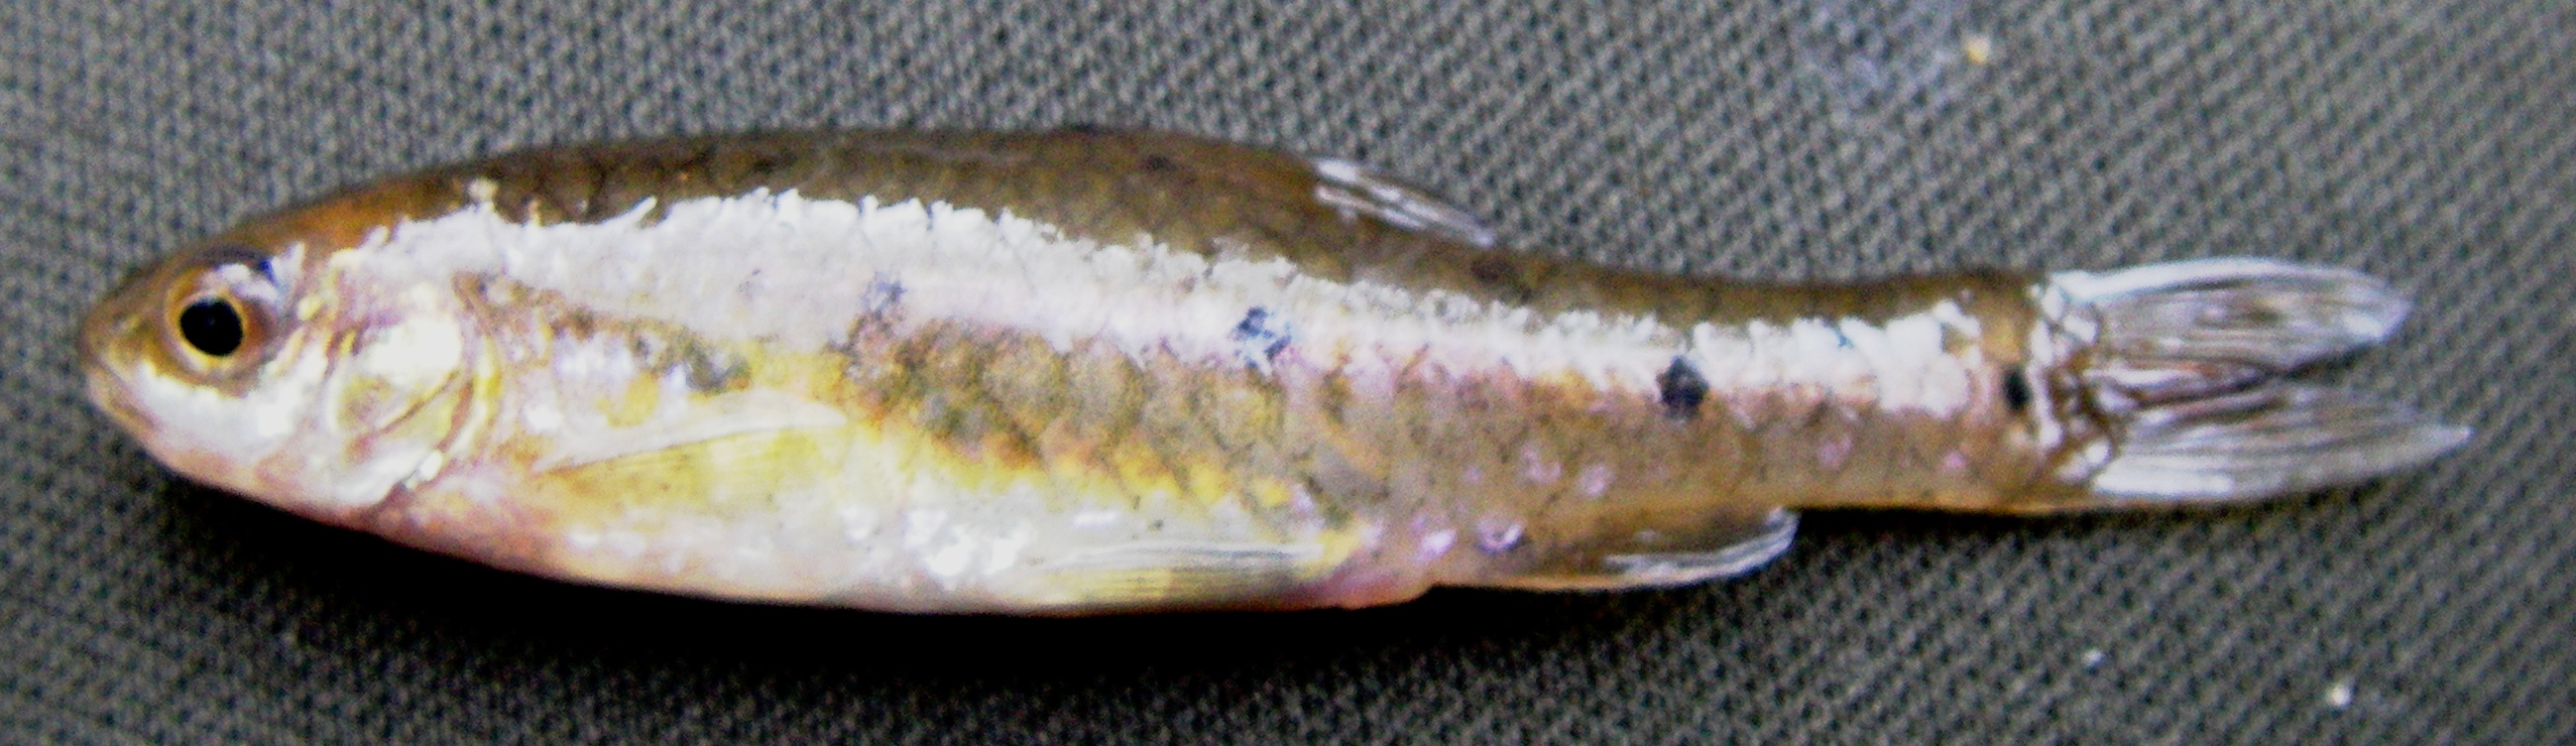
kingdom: Animalia
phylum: Chordata
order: Cypriniformes
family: Cyprinidae
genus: Enteromius
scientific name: Enteromius pallidus
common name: Goldie barb
